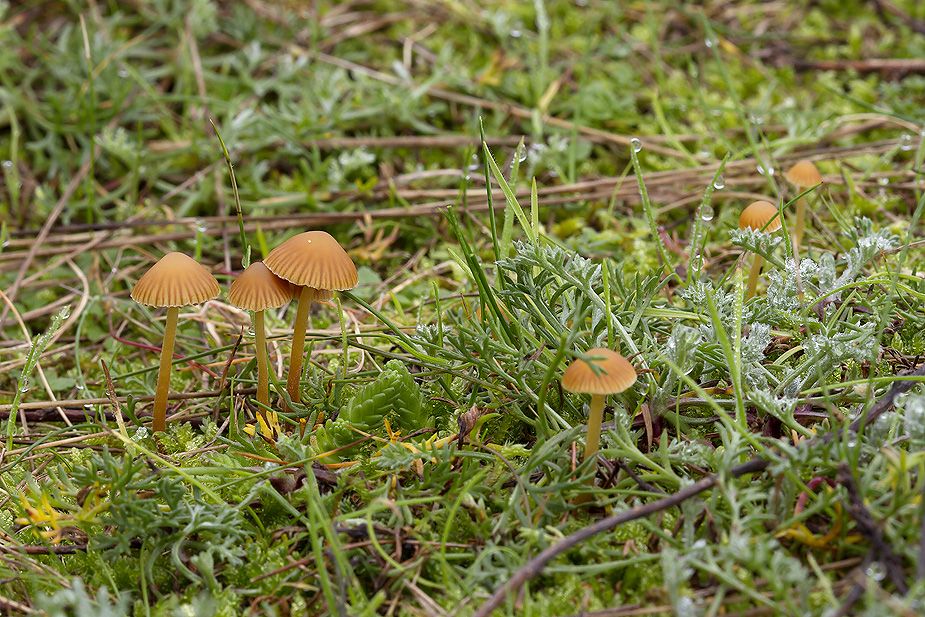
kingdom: Fungi
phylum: Basidiomycota
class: Agaricomycetes
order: Agaricales
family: Hymenogastraceae
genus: Galerina
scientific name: Galerina vittiformis
